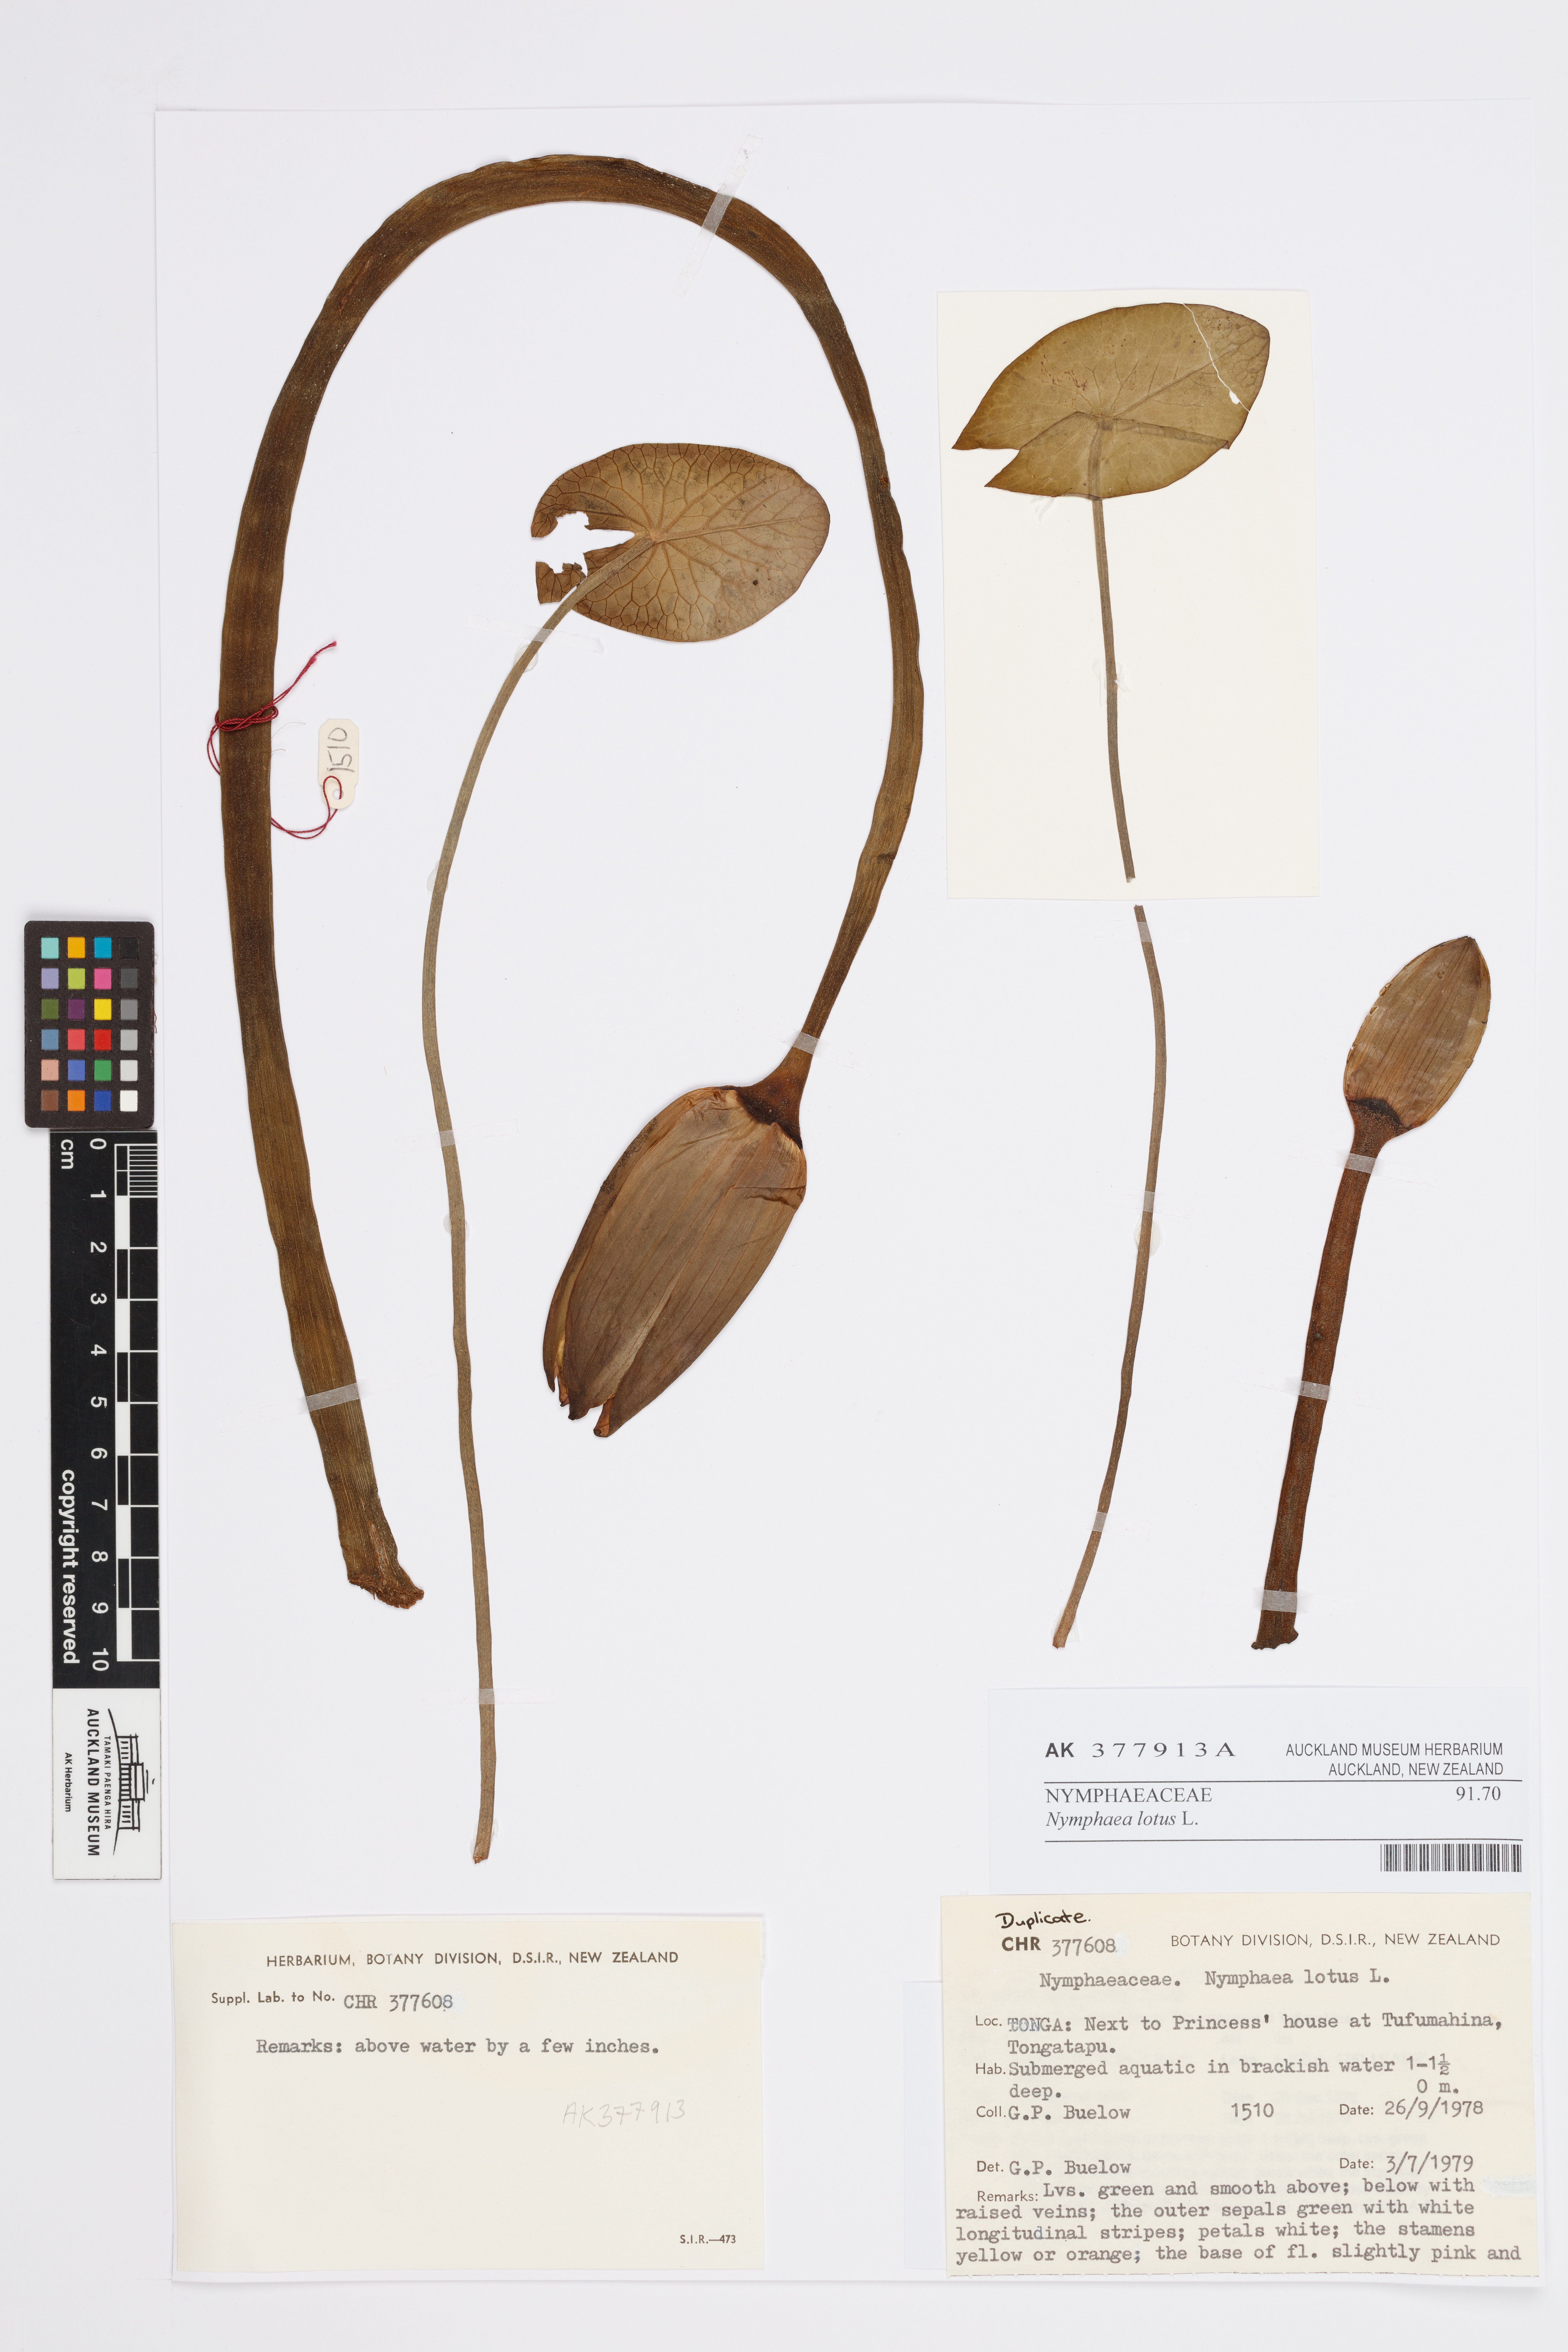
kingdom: Plantae
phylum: Tracheophyta
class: Magnoliopsida
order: Nymphaeales
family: Nymphaeaceae
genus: Nymphaea
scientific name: Nymphaea lotus
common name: White egyptian lotus
